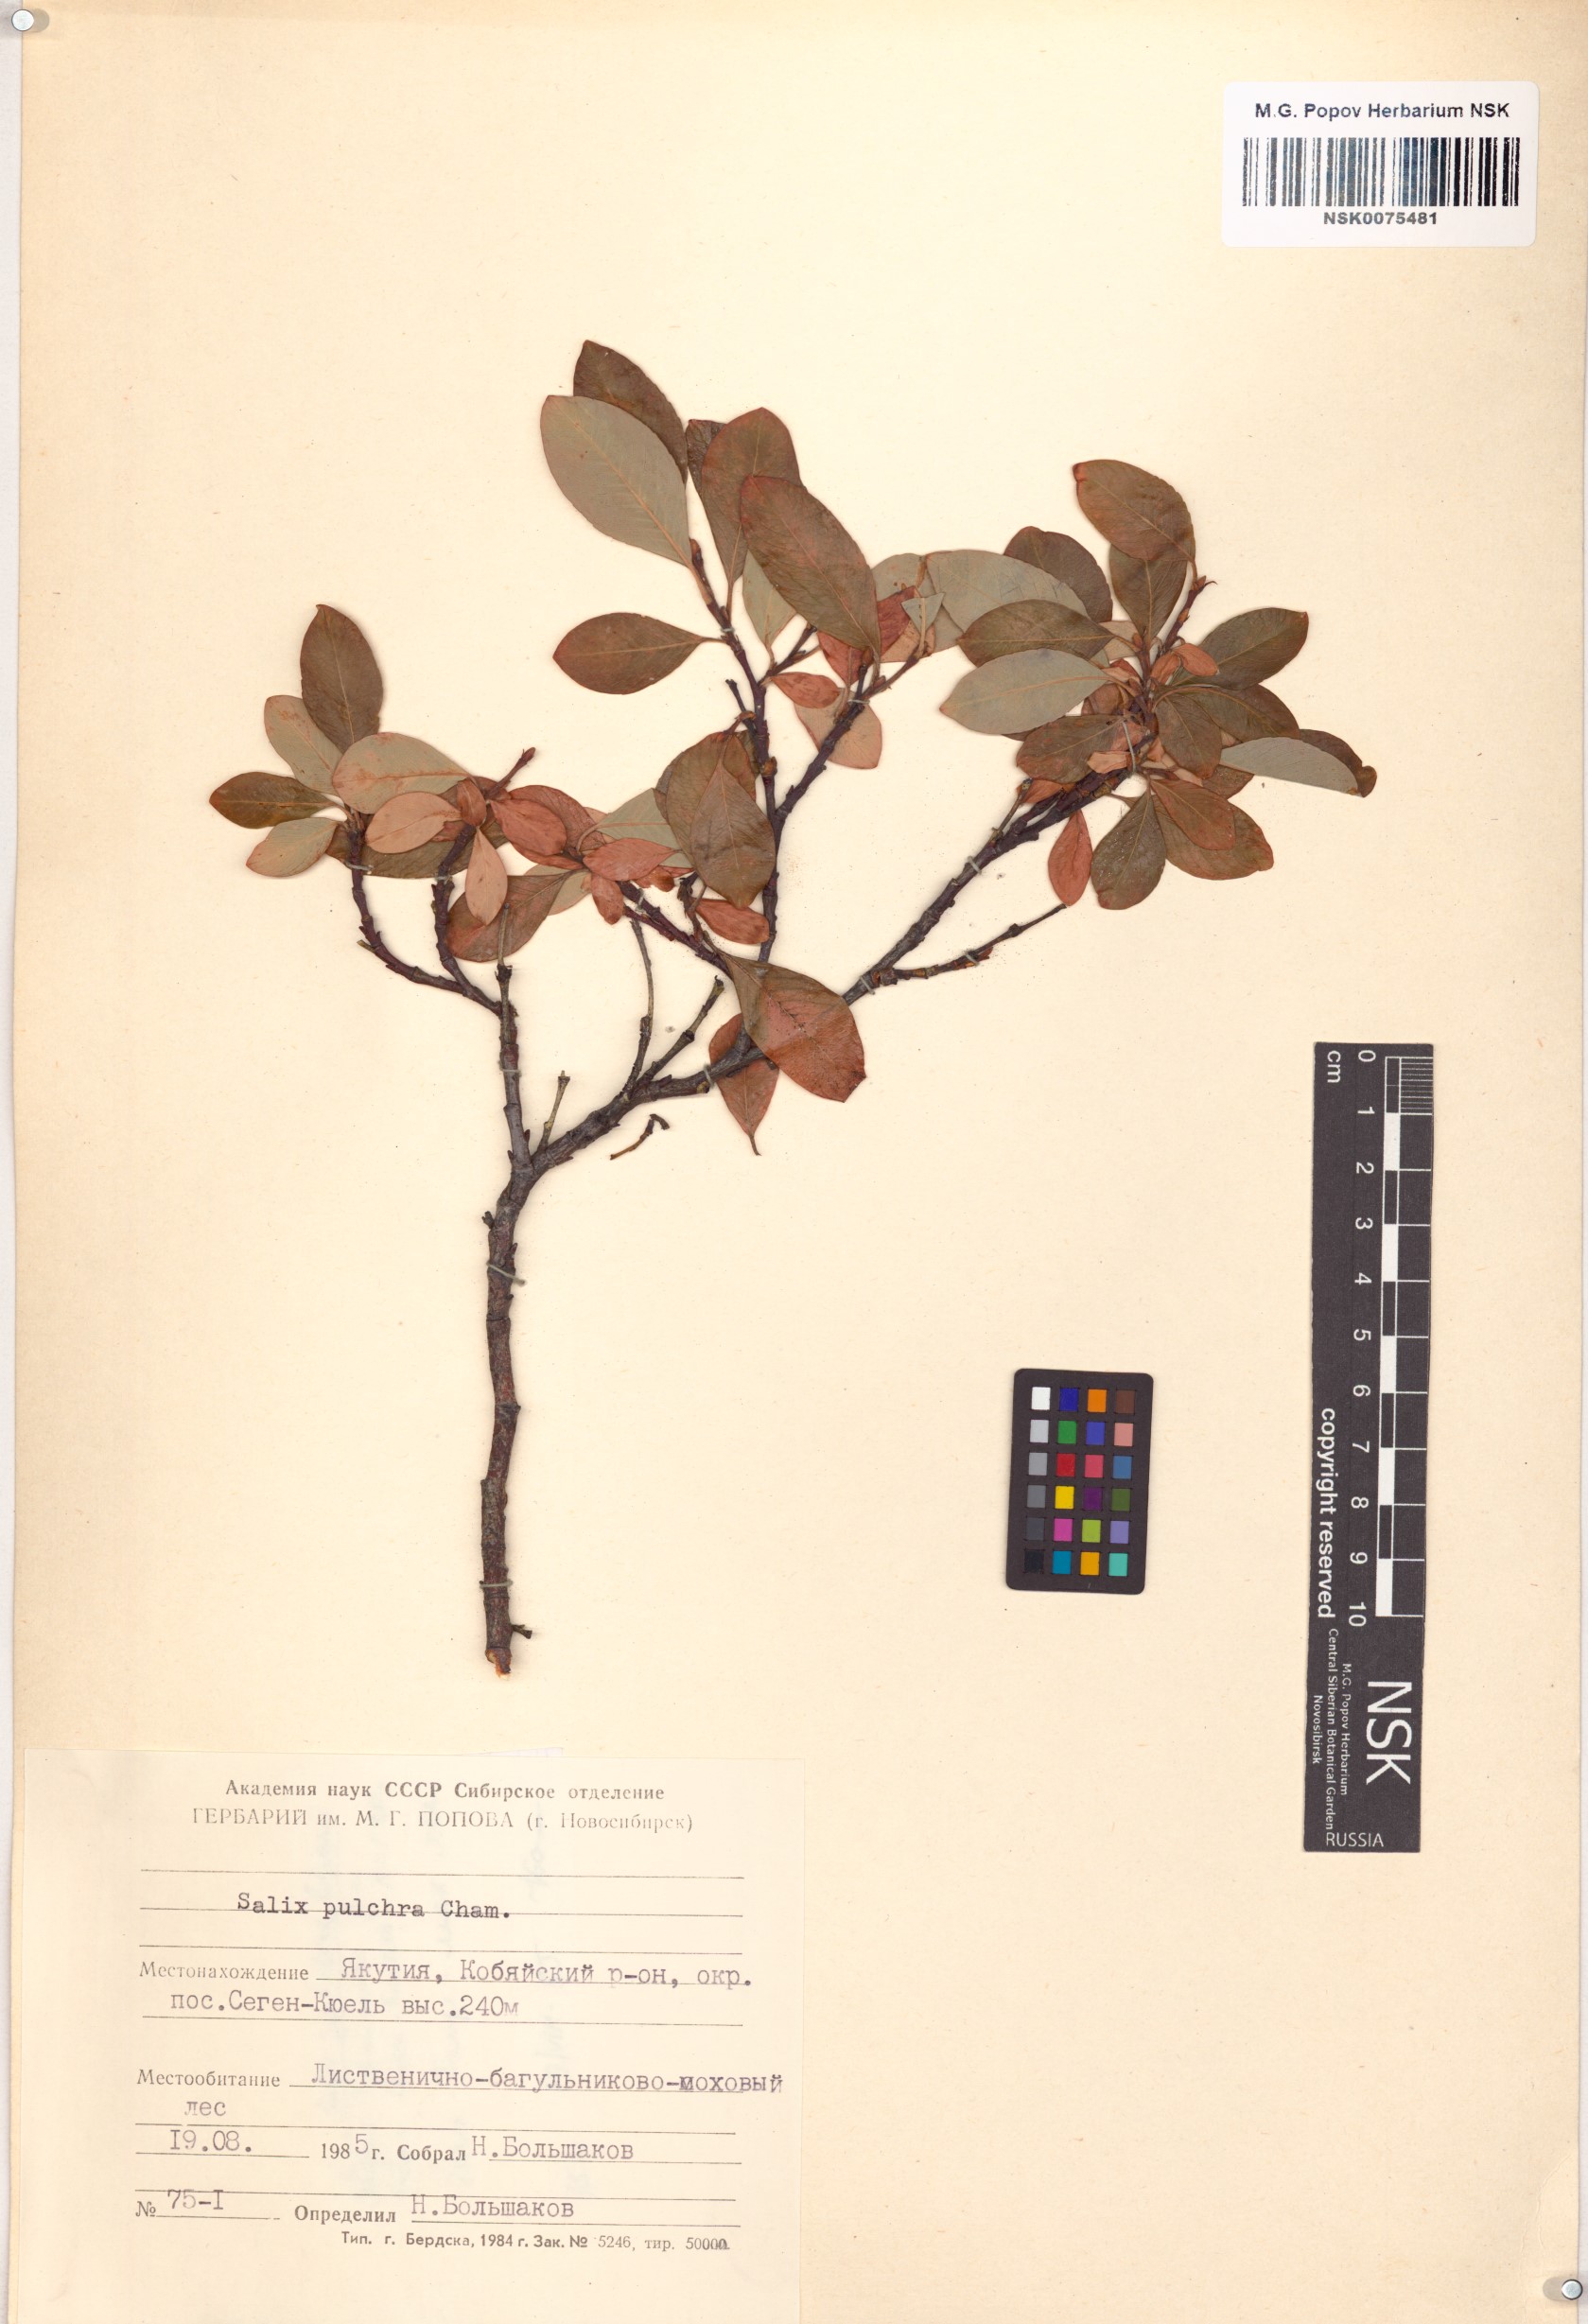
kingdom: Plantae
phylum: Tracheophyta
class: Magnoliopsida
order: Malpighiales
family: Salicaceae
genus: Salix
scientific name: Salix pulchra
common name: Diamond-leaved willow
